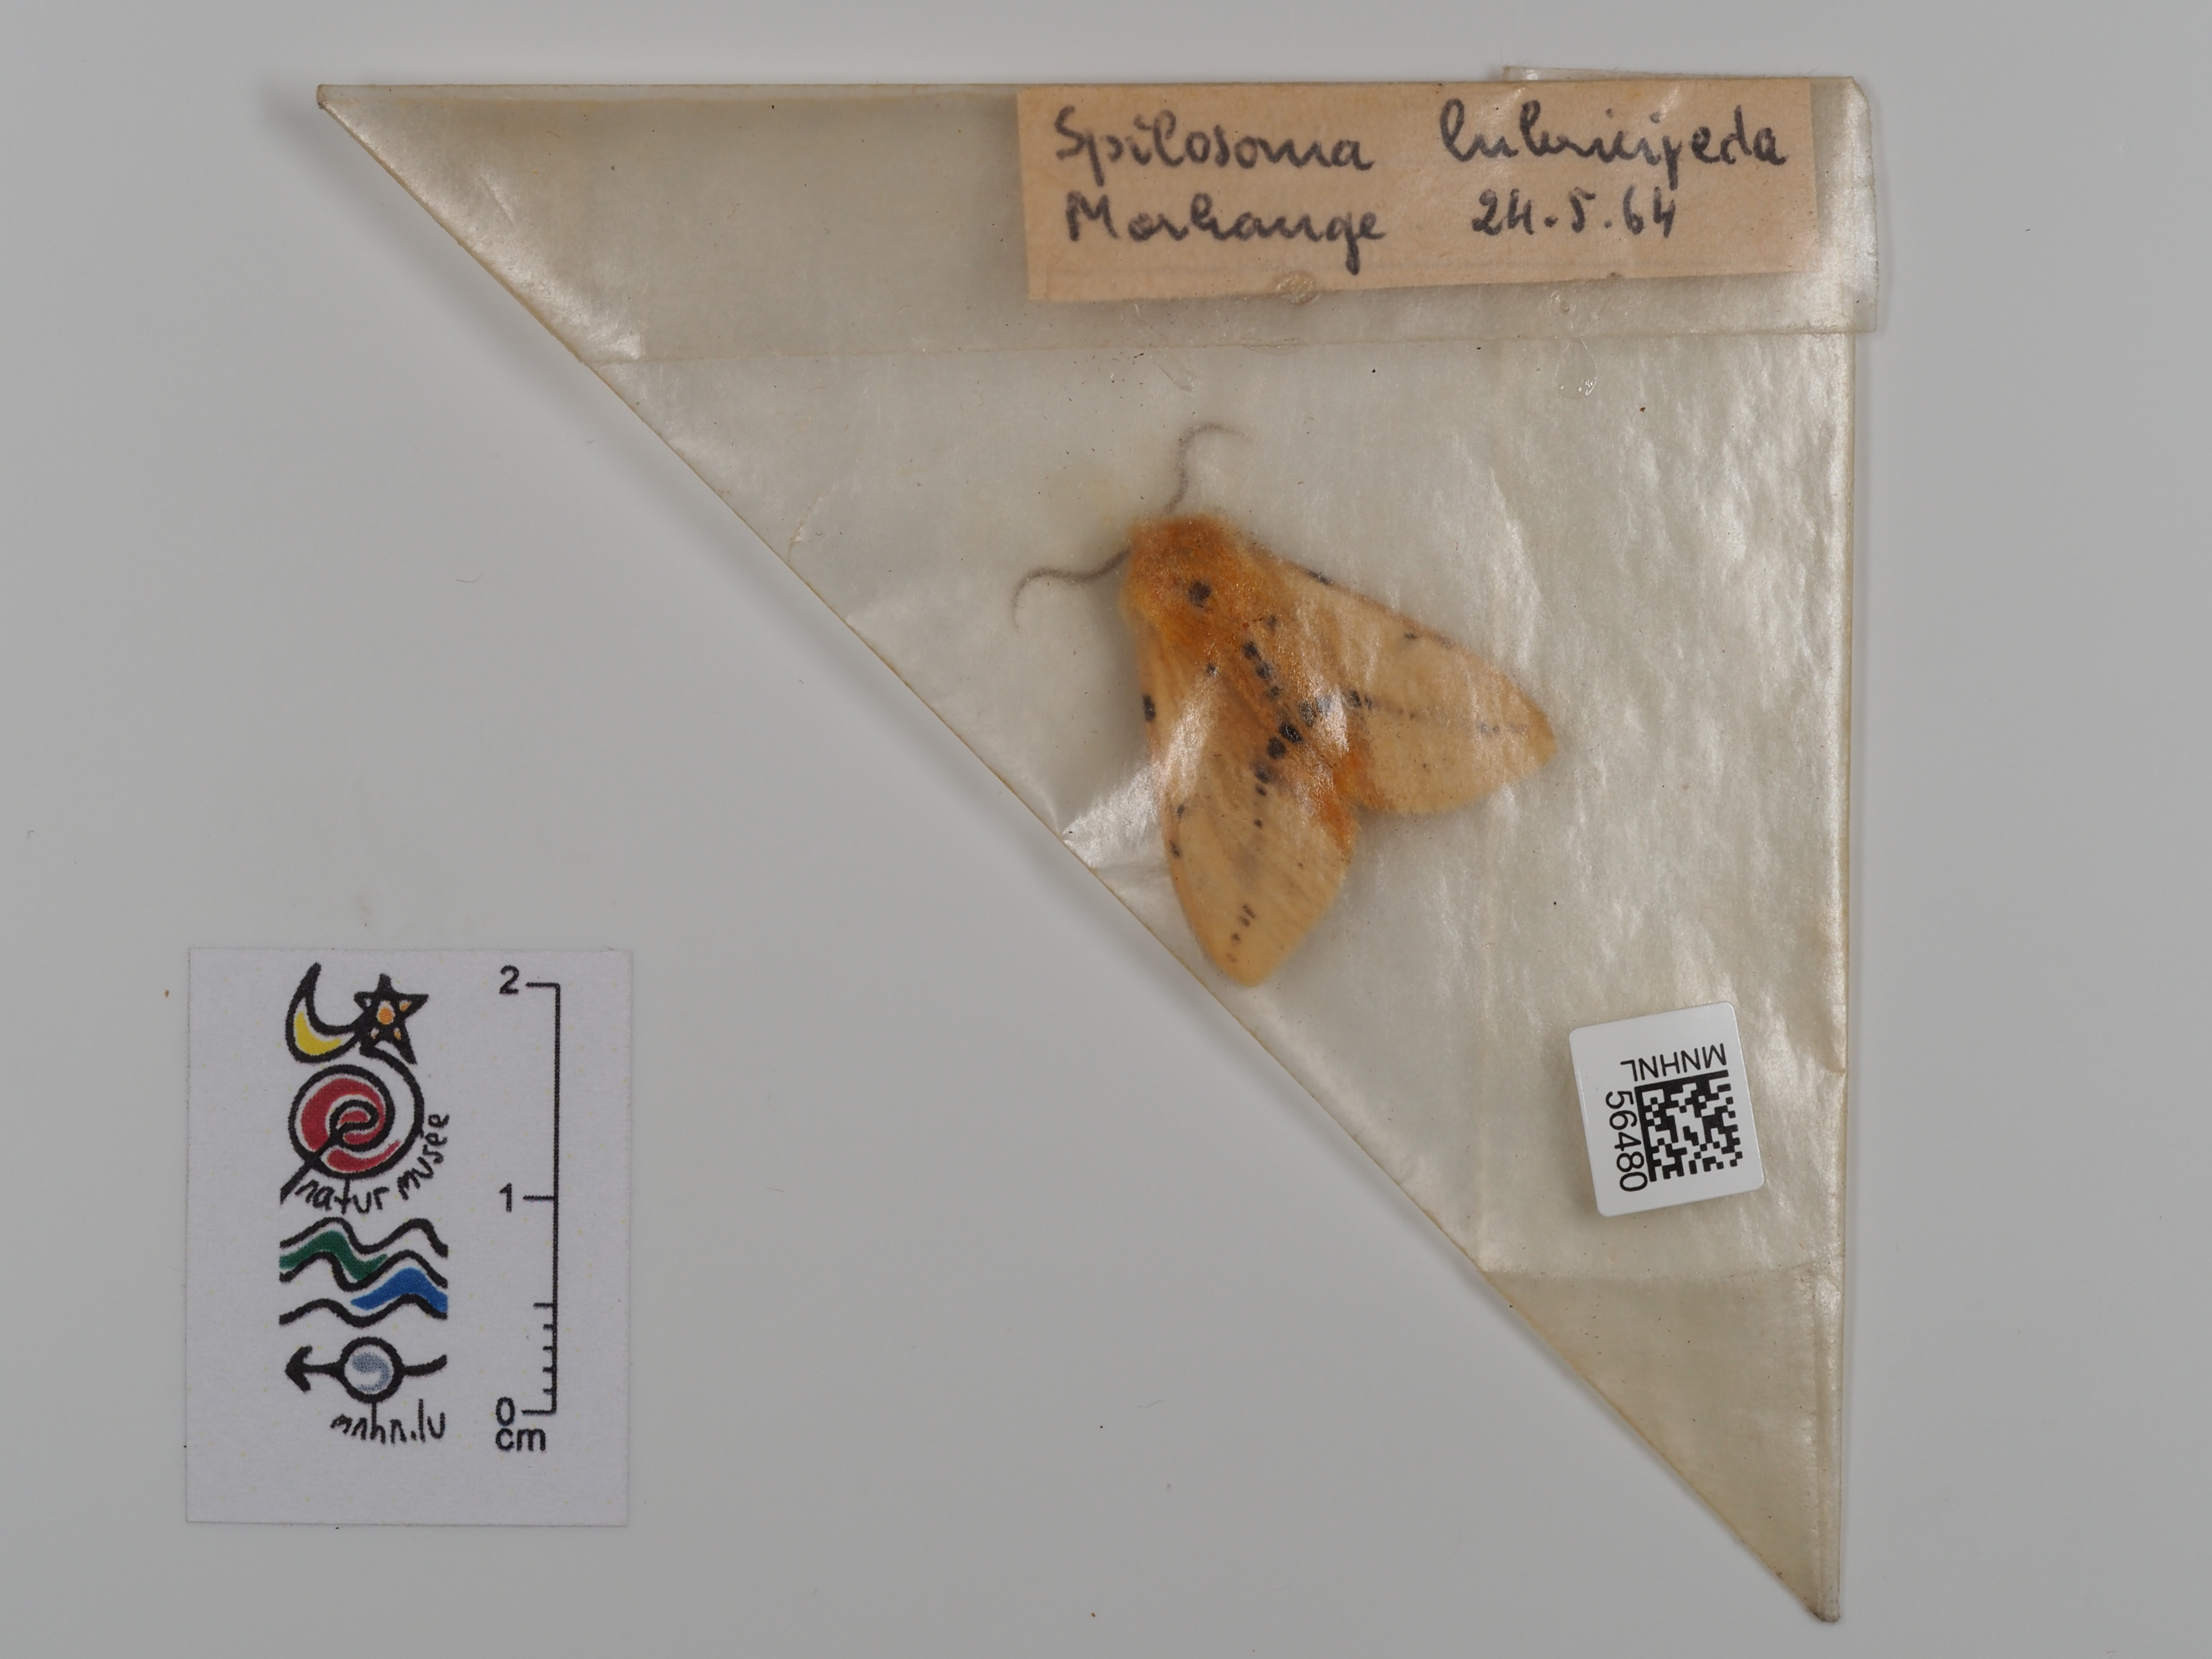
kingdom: Animalia
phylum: Arthropoda
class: Insecta
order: Lepidoptera
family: Erebidae
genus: Spilosoma
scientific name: Spilosoma lubricipeda
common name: White ermine
